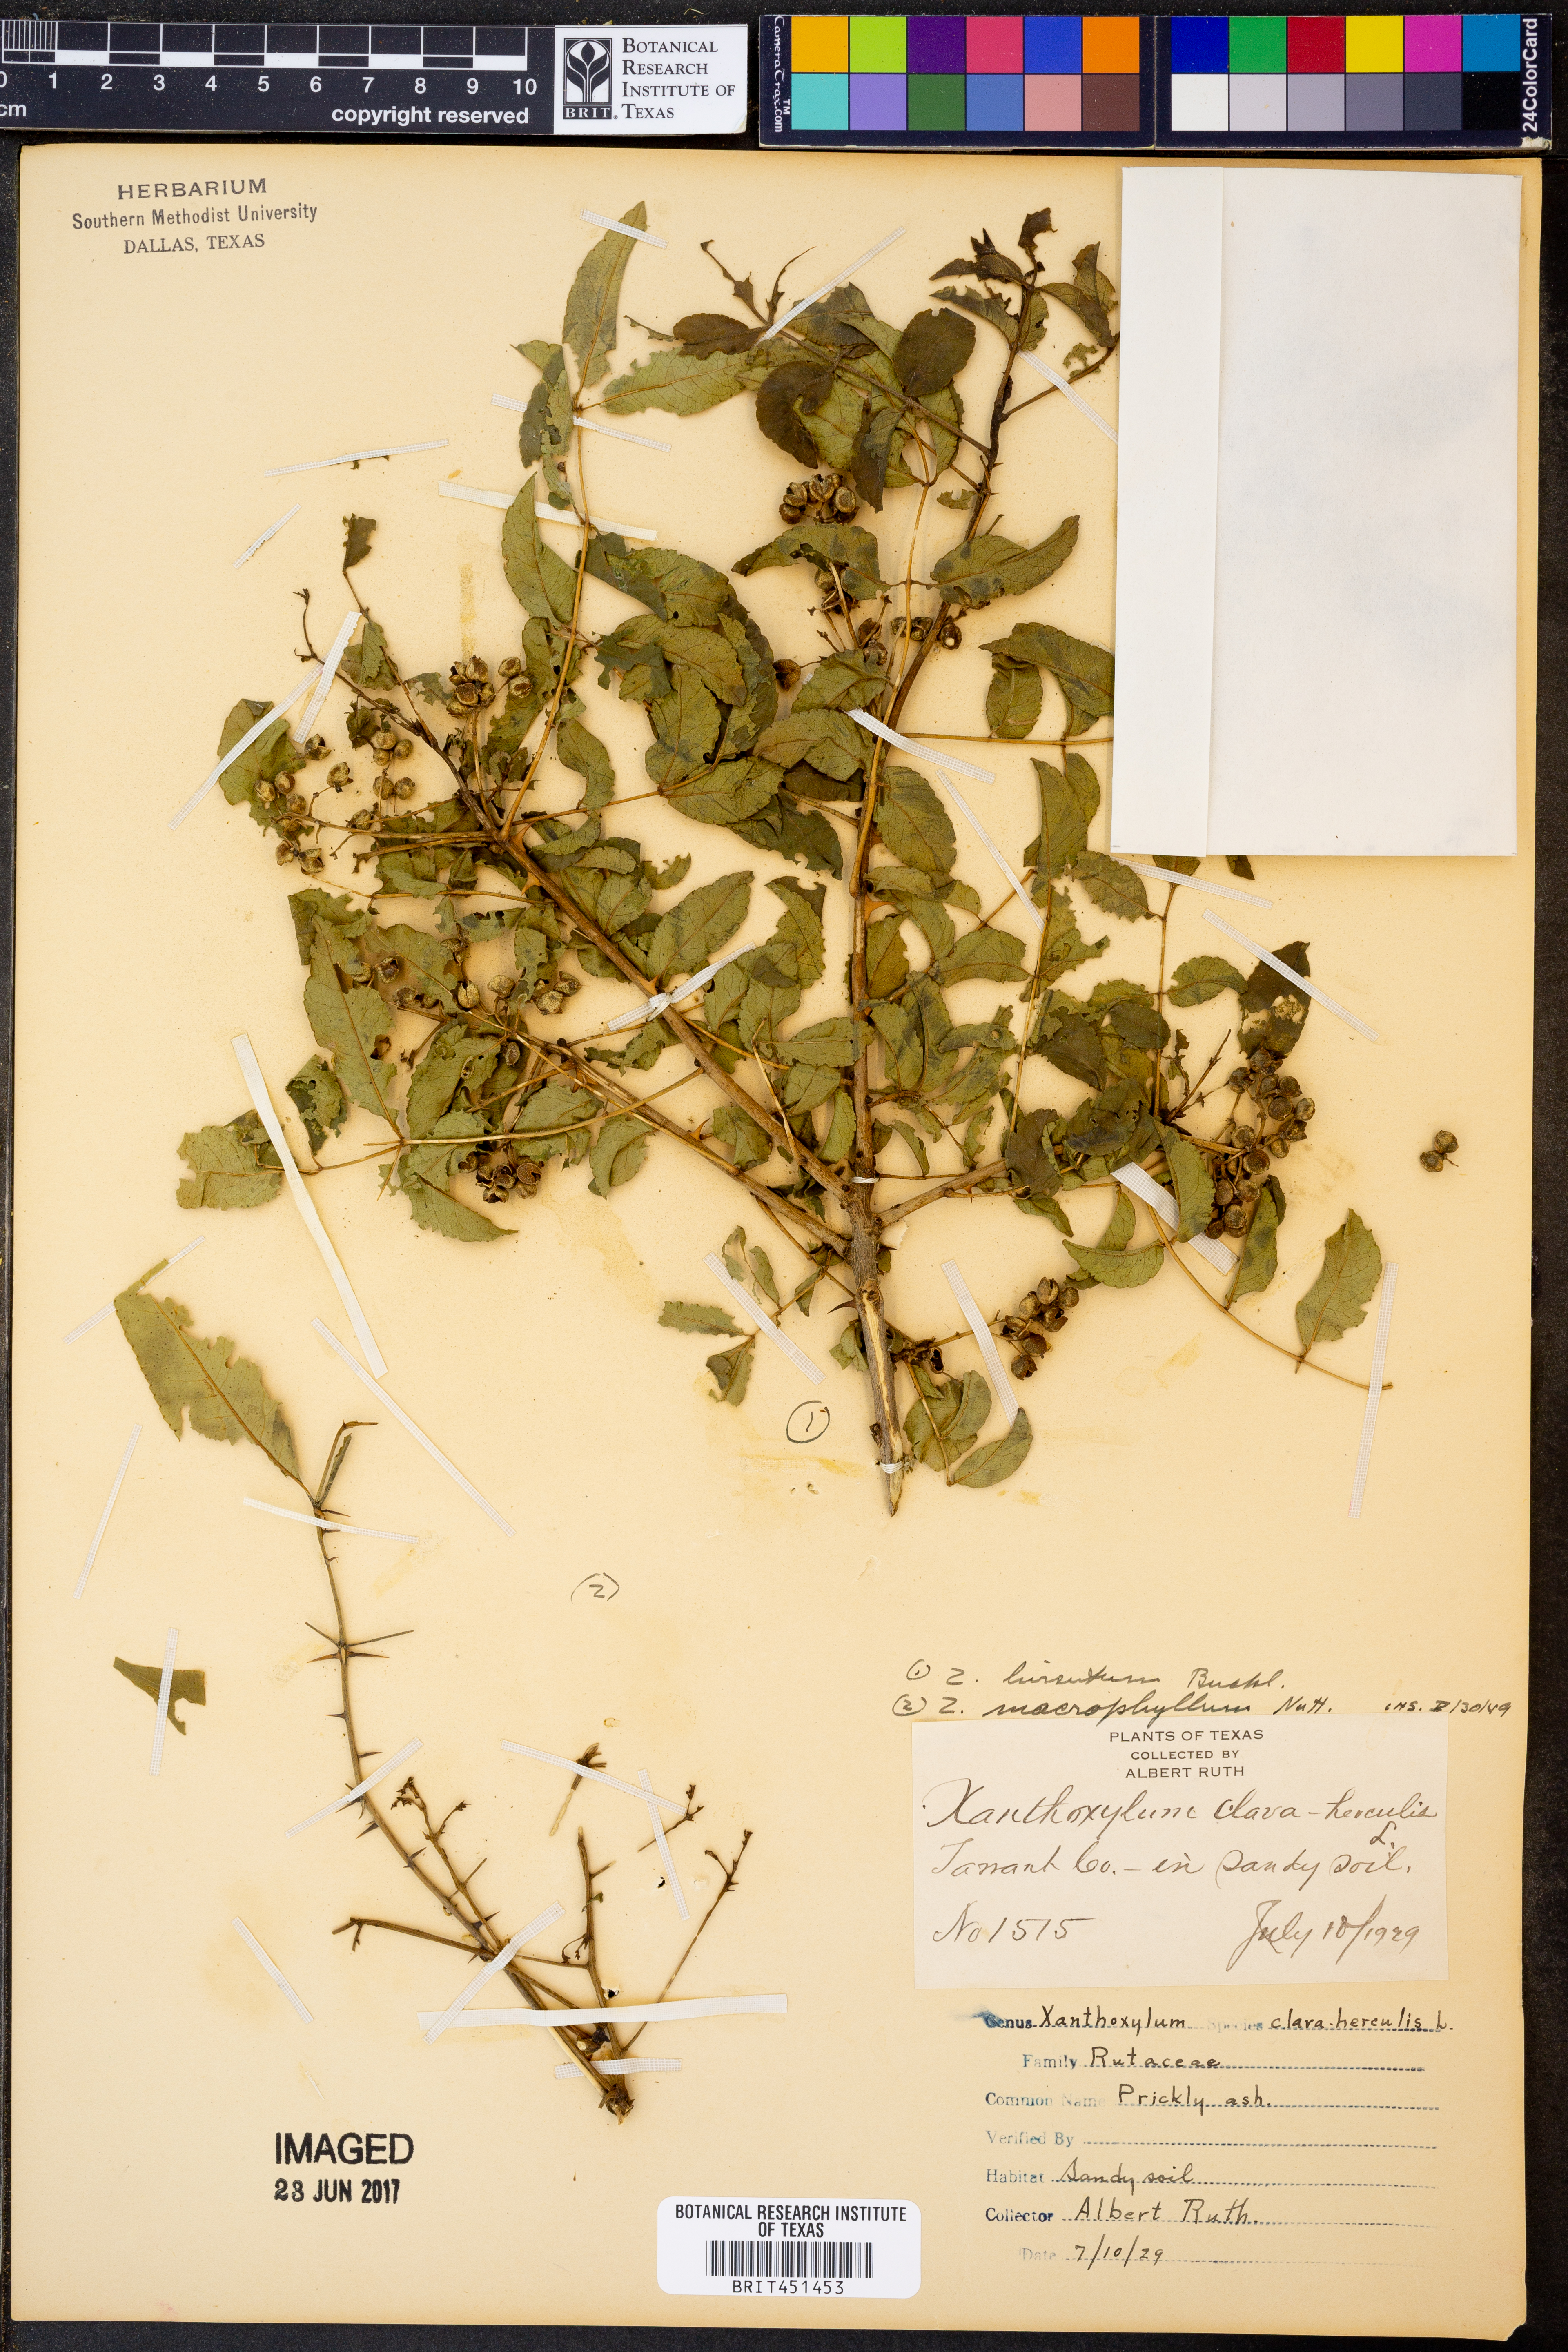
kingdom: Plantae
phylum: Tracheophyta
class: Magnoliopsida
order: Sapindales
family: Rutaceae
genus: Zanthoxylum
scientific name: Zanthoxylum clava-herculis
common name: Hercules'-club
